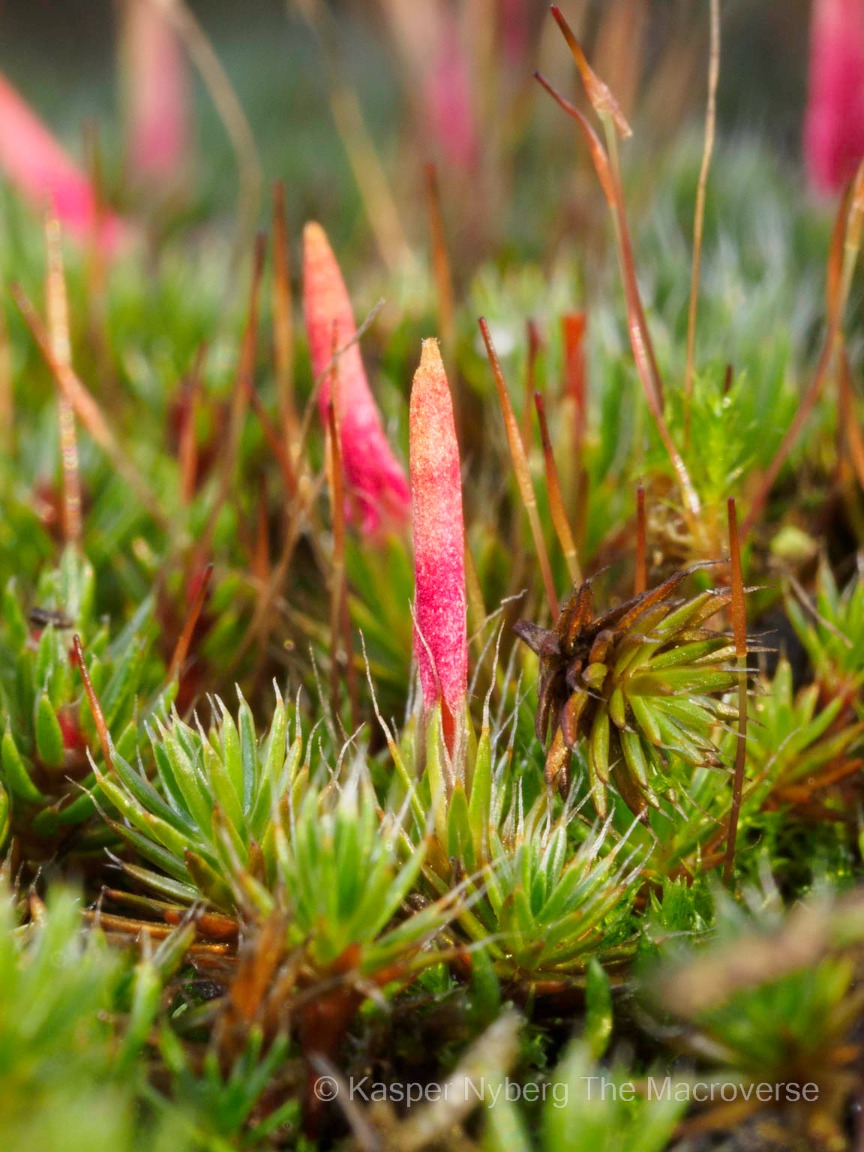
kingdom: Plantae
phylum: Bryophyta
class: Polytrichopsida
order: Polytrichales
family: Polytrichaceae
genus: Polytrichum
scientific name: Polytrichum piliferum
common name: Hårspidset jomfruhår
